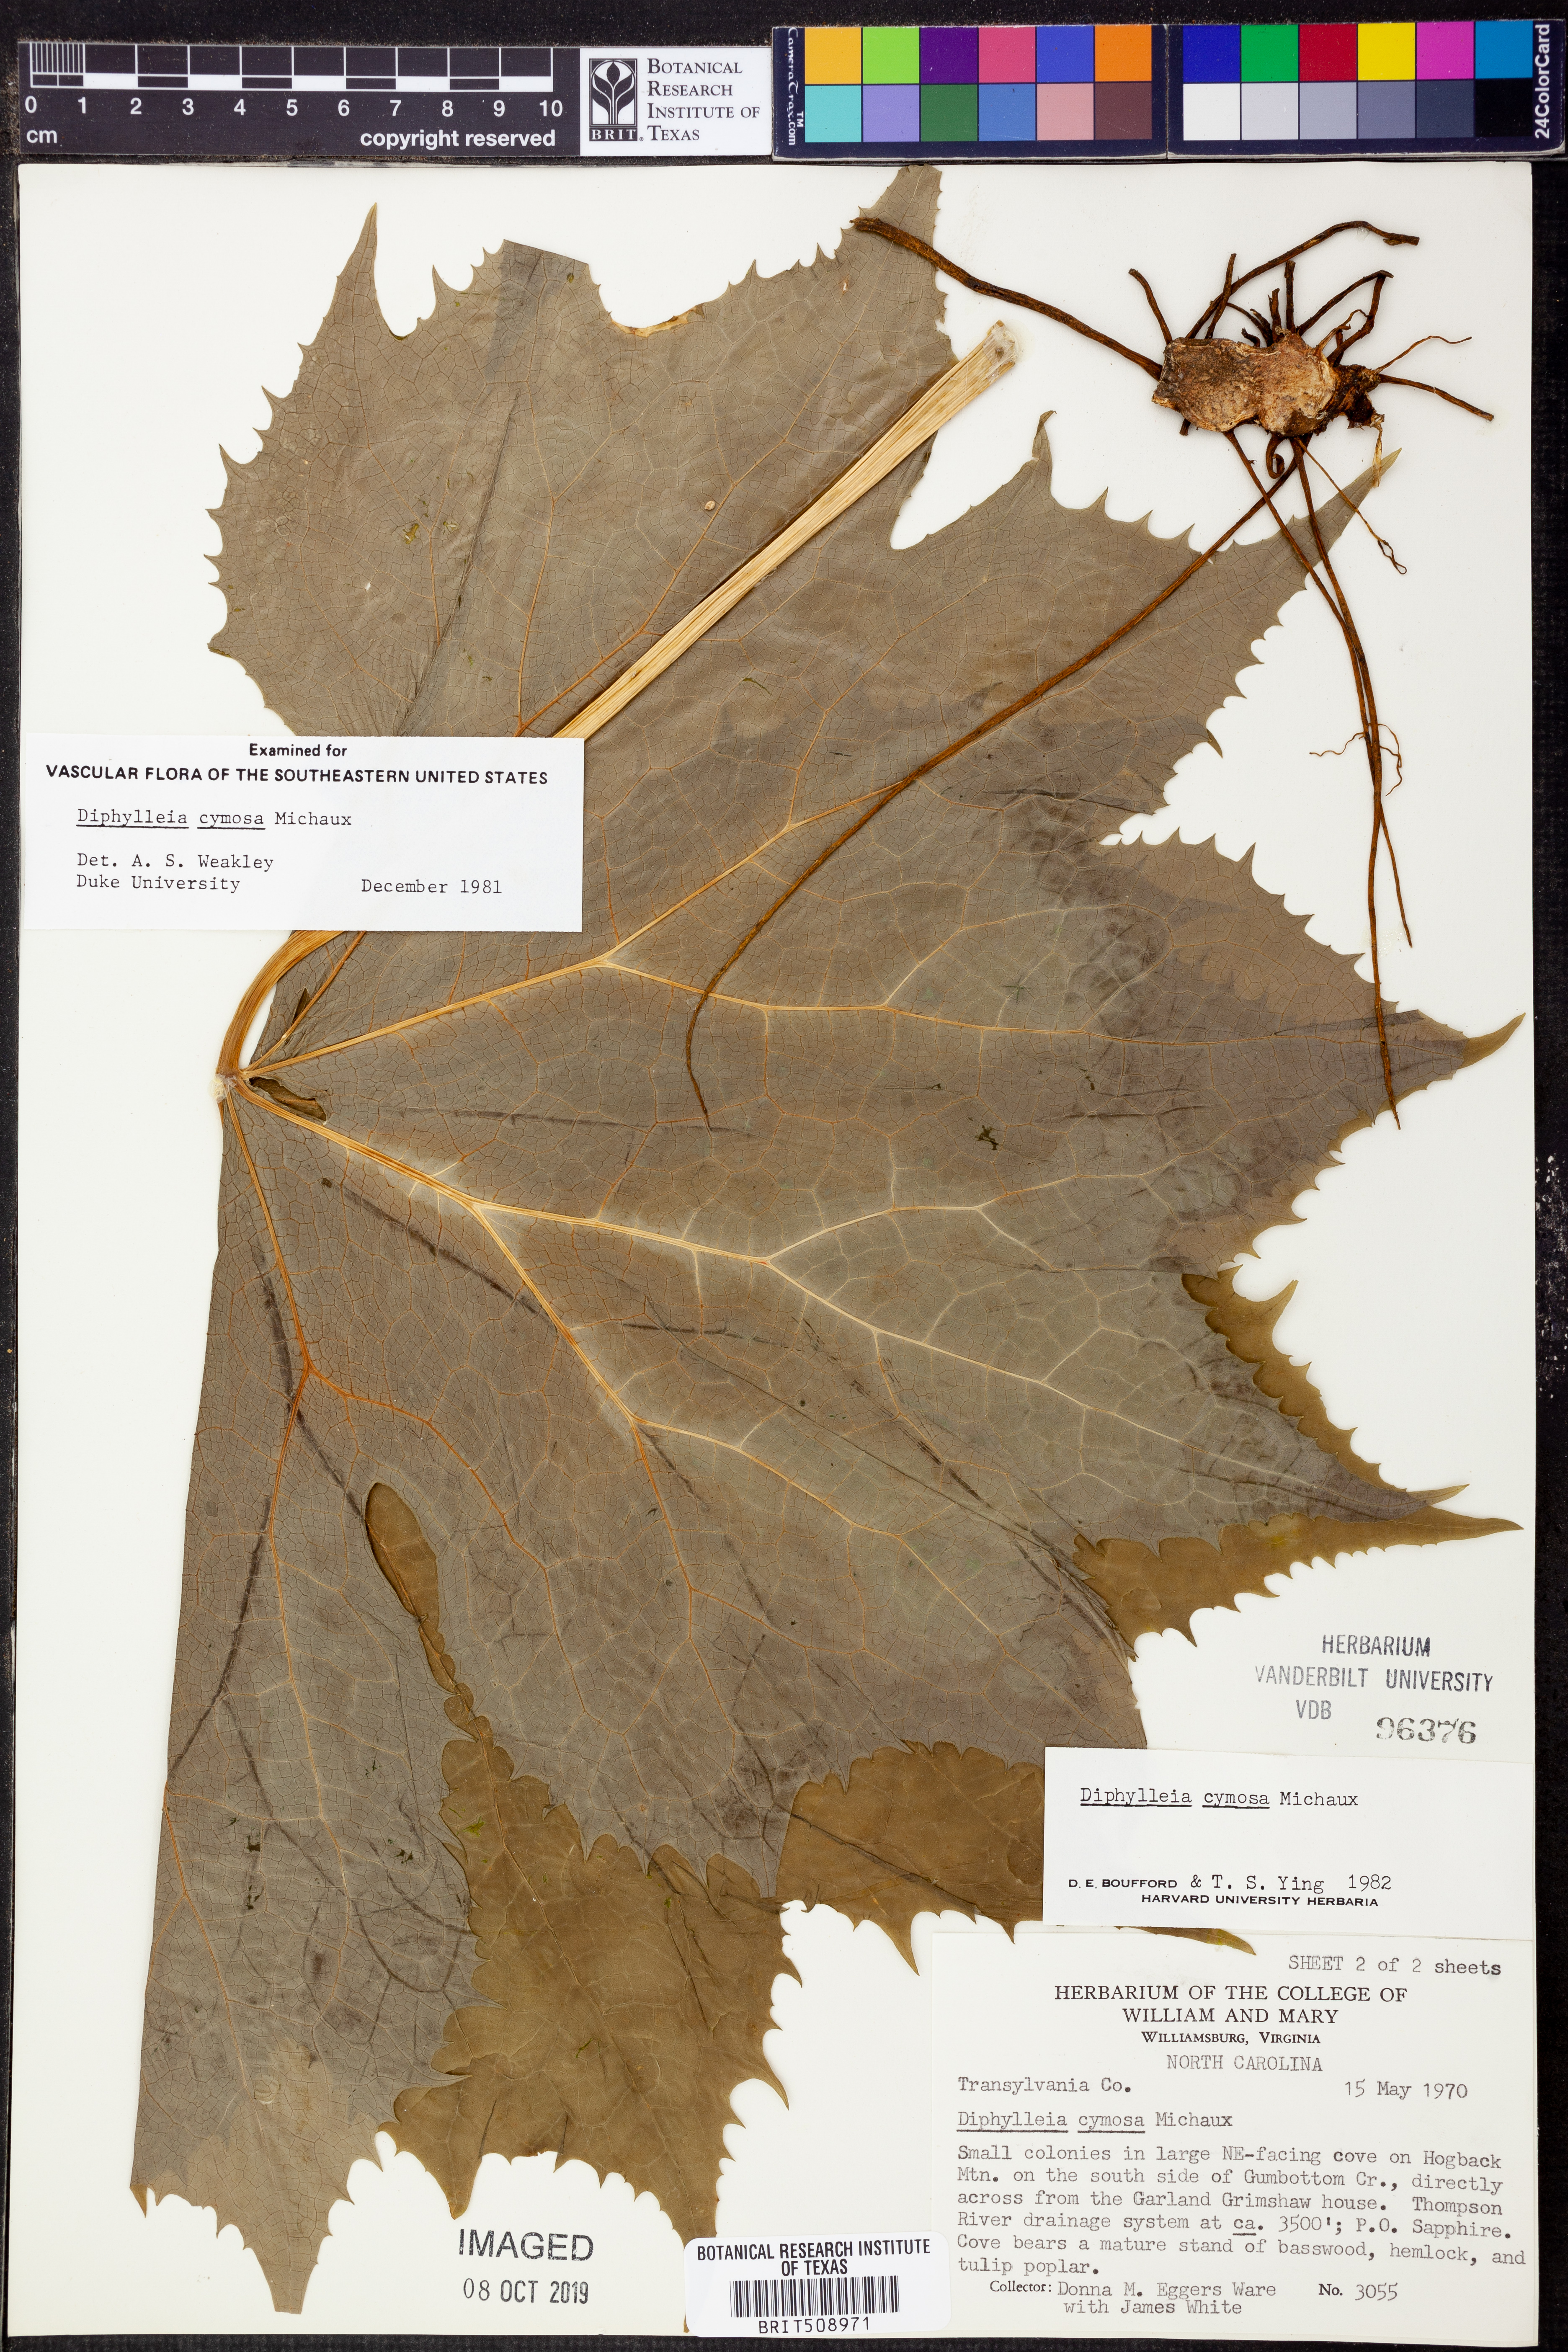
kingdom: Plantae
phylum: Tracheophyta
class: Magnoliopsida
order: Ranunculales
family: Berberidaceae
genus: Diphylleia
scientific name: Diphylleia cymosa
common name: Umbrella-leaf
